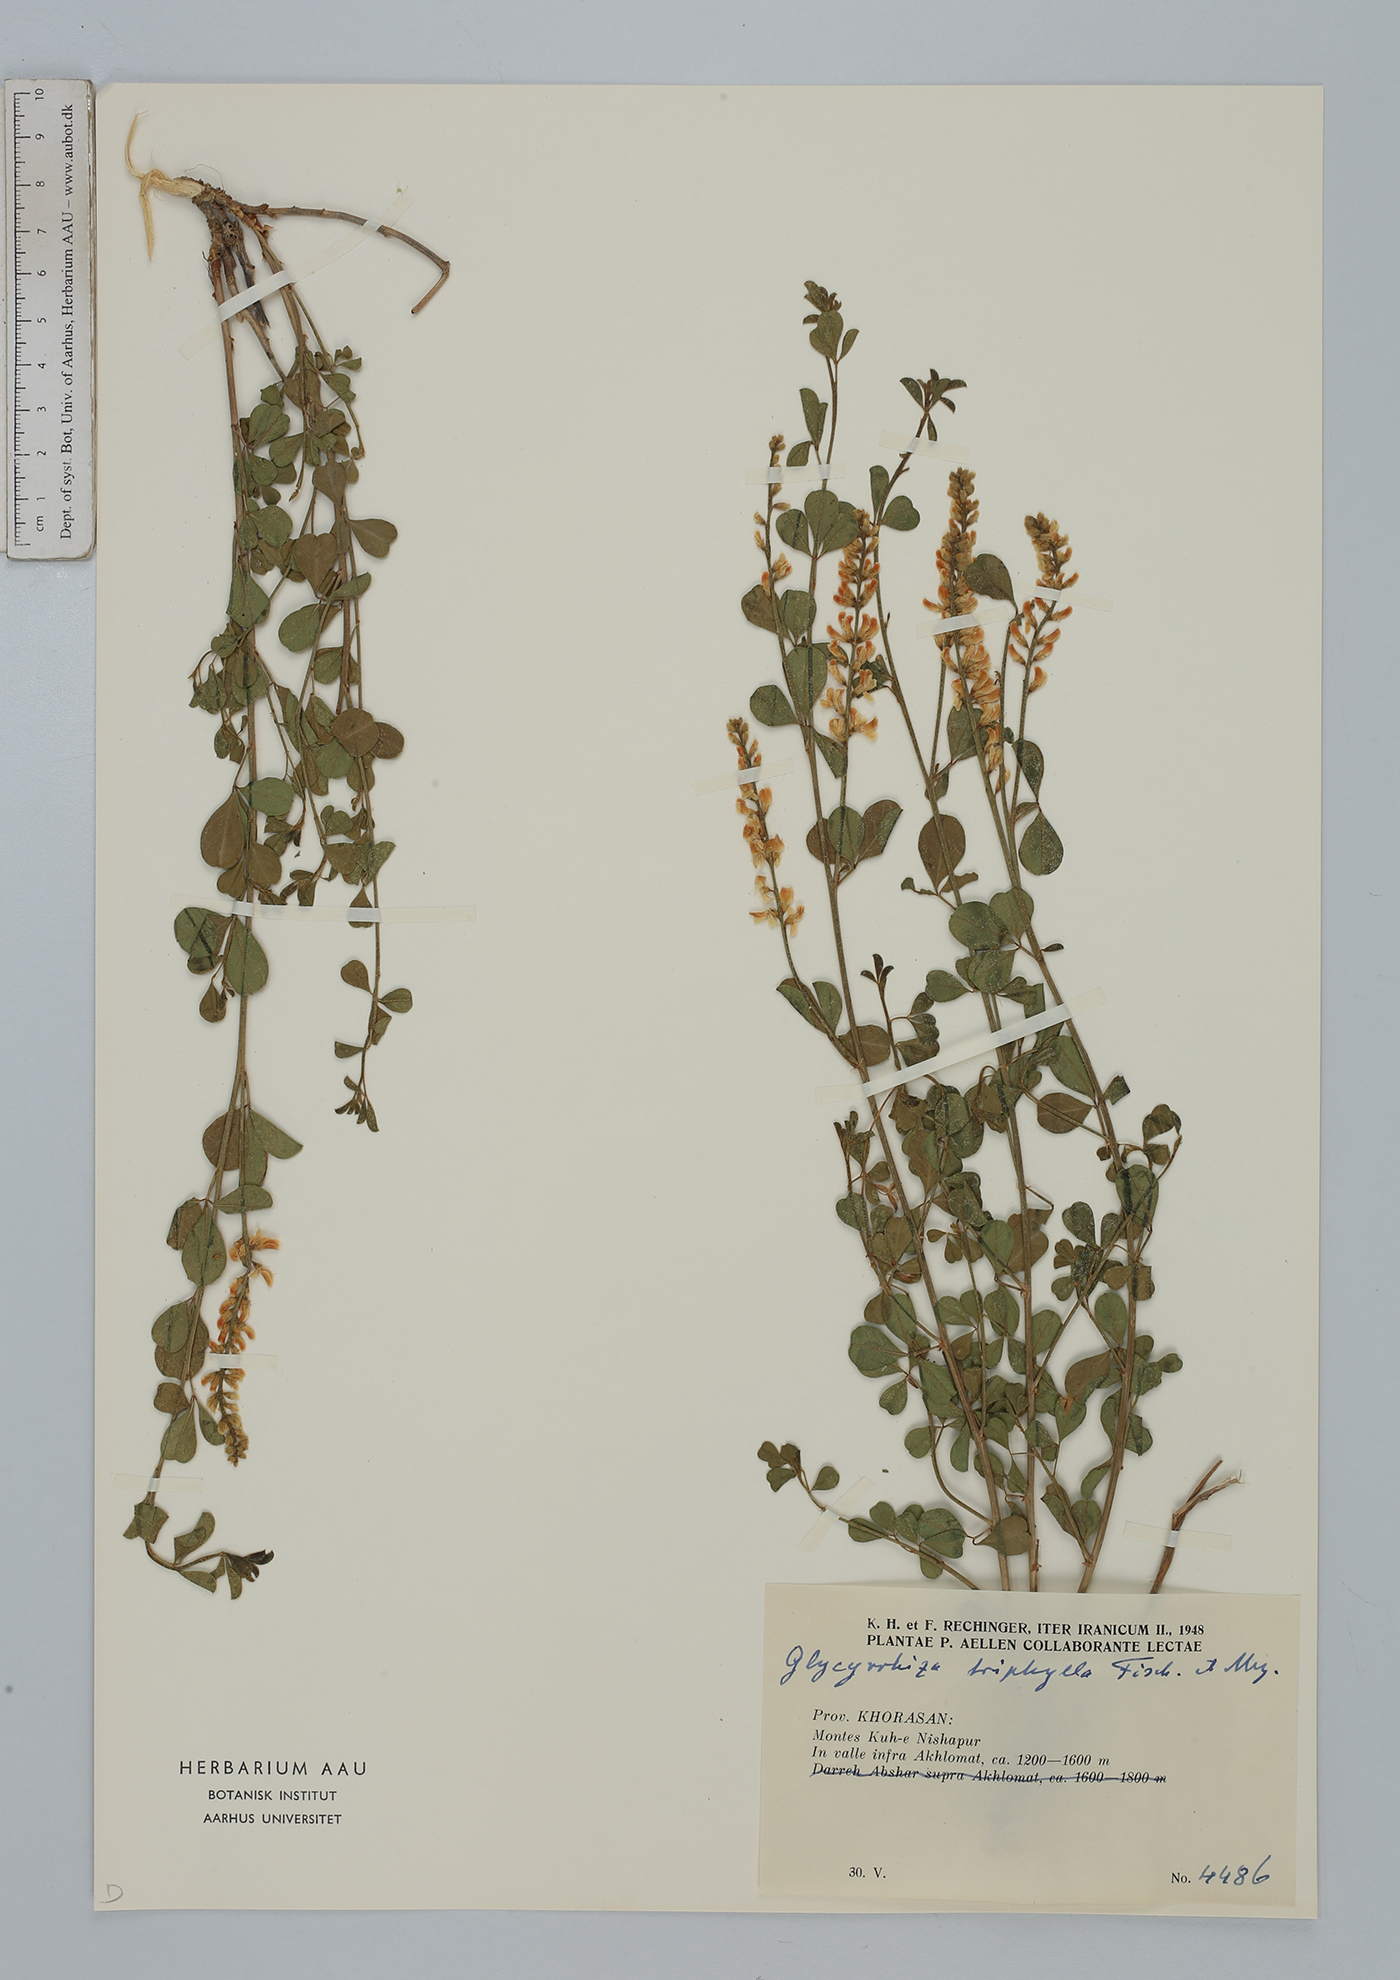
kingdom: Plantae
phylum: Tracheophyta
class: Magnoliopsida
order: Fabales
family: Fabaceae
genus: Glycyrrhiza
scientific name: Glycyrrhiza triphylla
